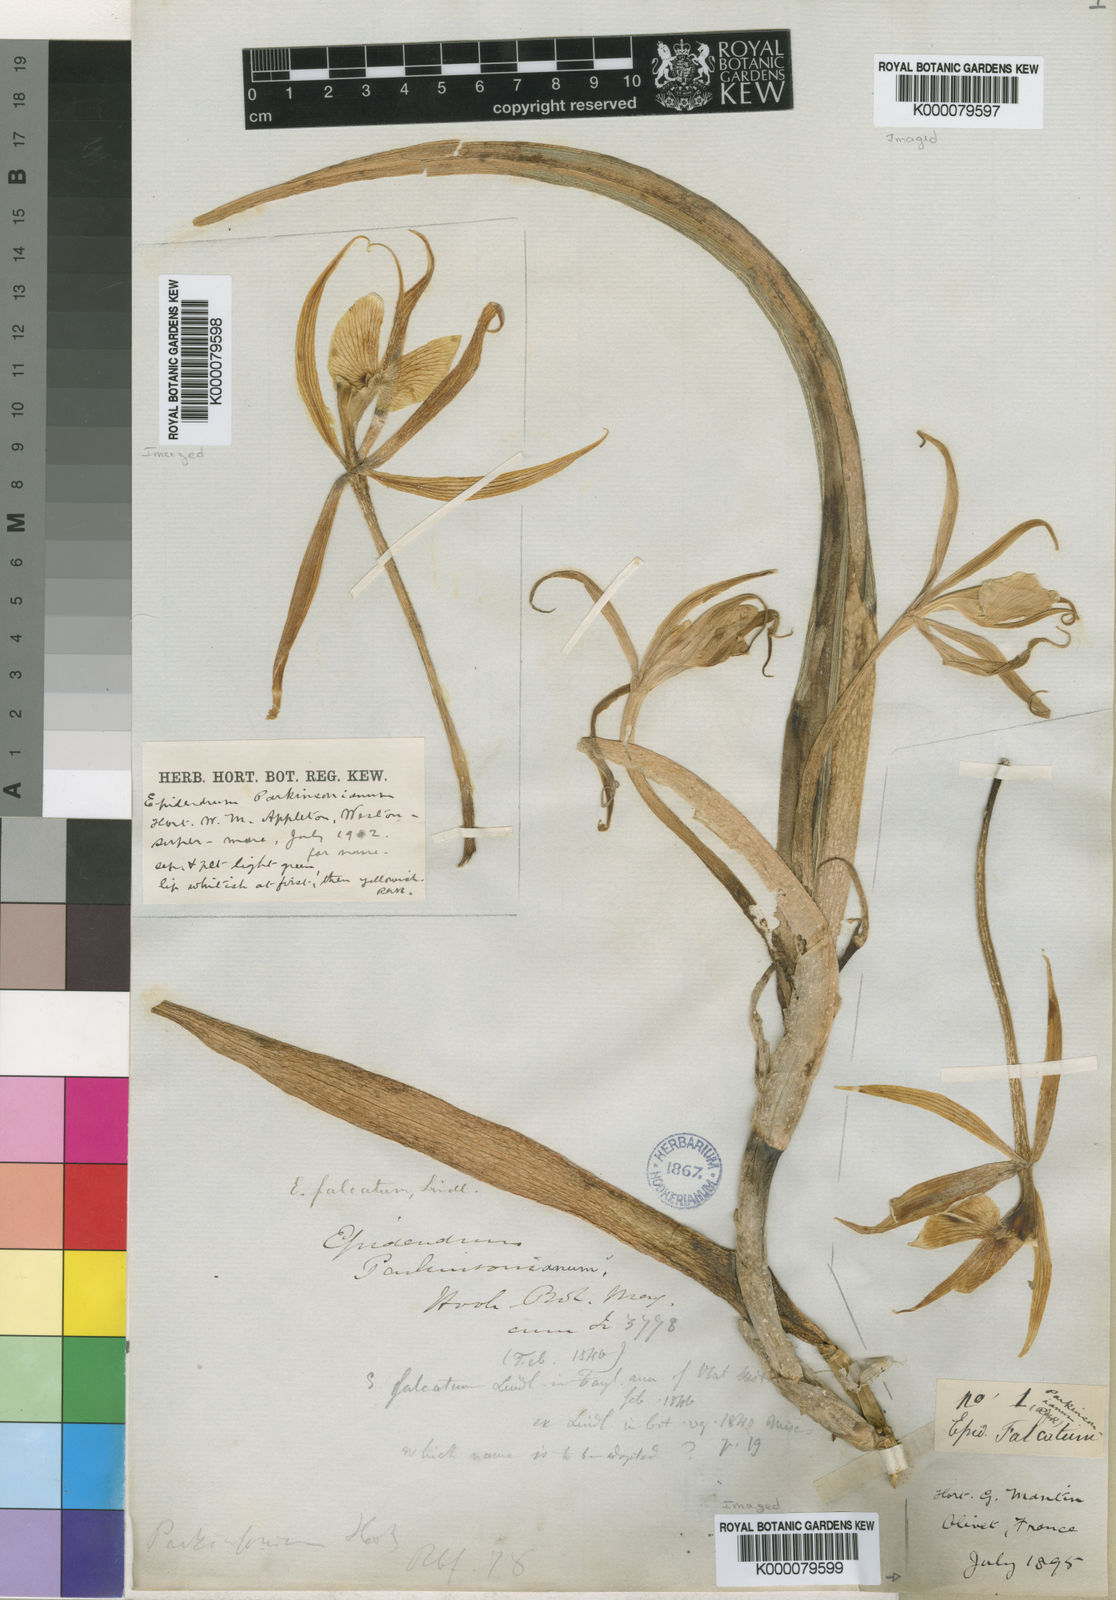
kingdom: Plantae
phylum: Tracheophyta
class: Liliopsida
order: Asparagales
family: Orchidaceae
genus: Epidendrum
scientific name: Epidendrum falcatum
